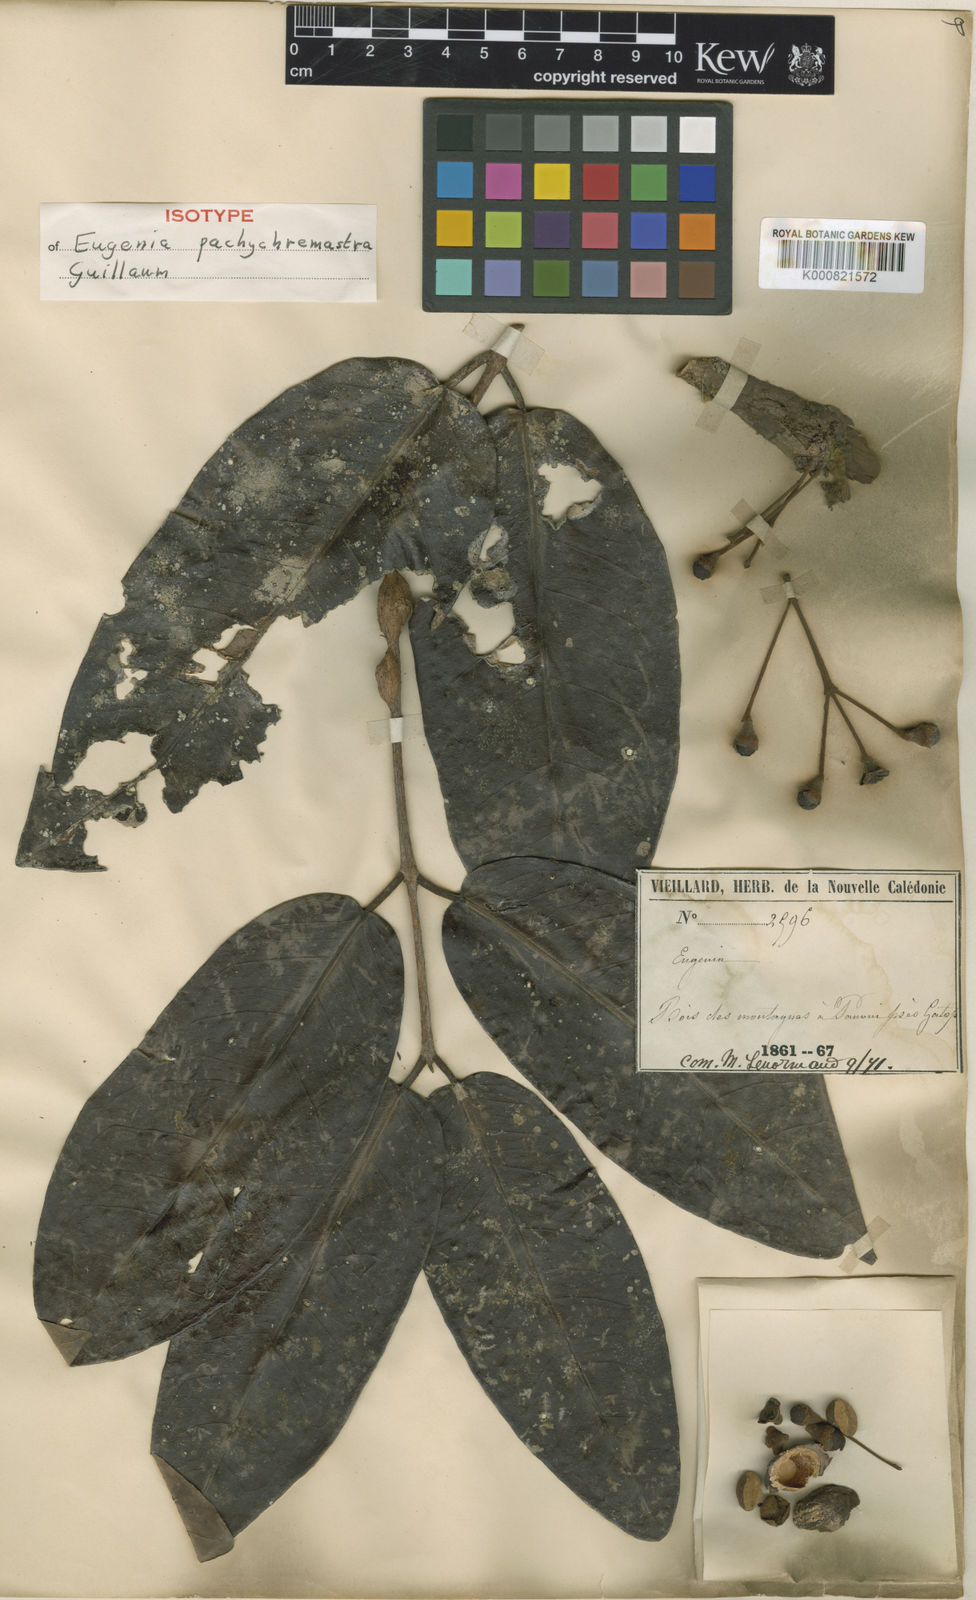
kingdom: Plantae
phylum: Tracheophyta
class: Magnoliopsida
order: Myrtales
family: Myrtaceae
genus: Eugenia
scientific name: Eugenia pachychremastra
